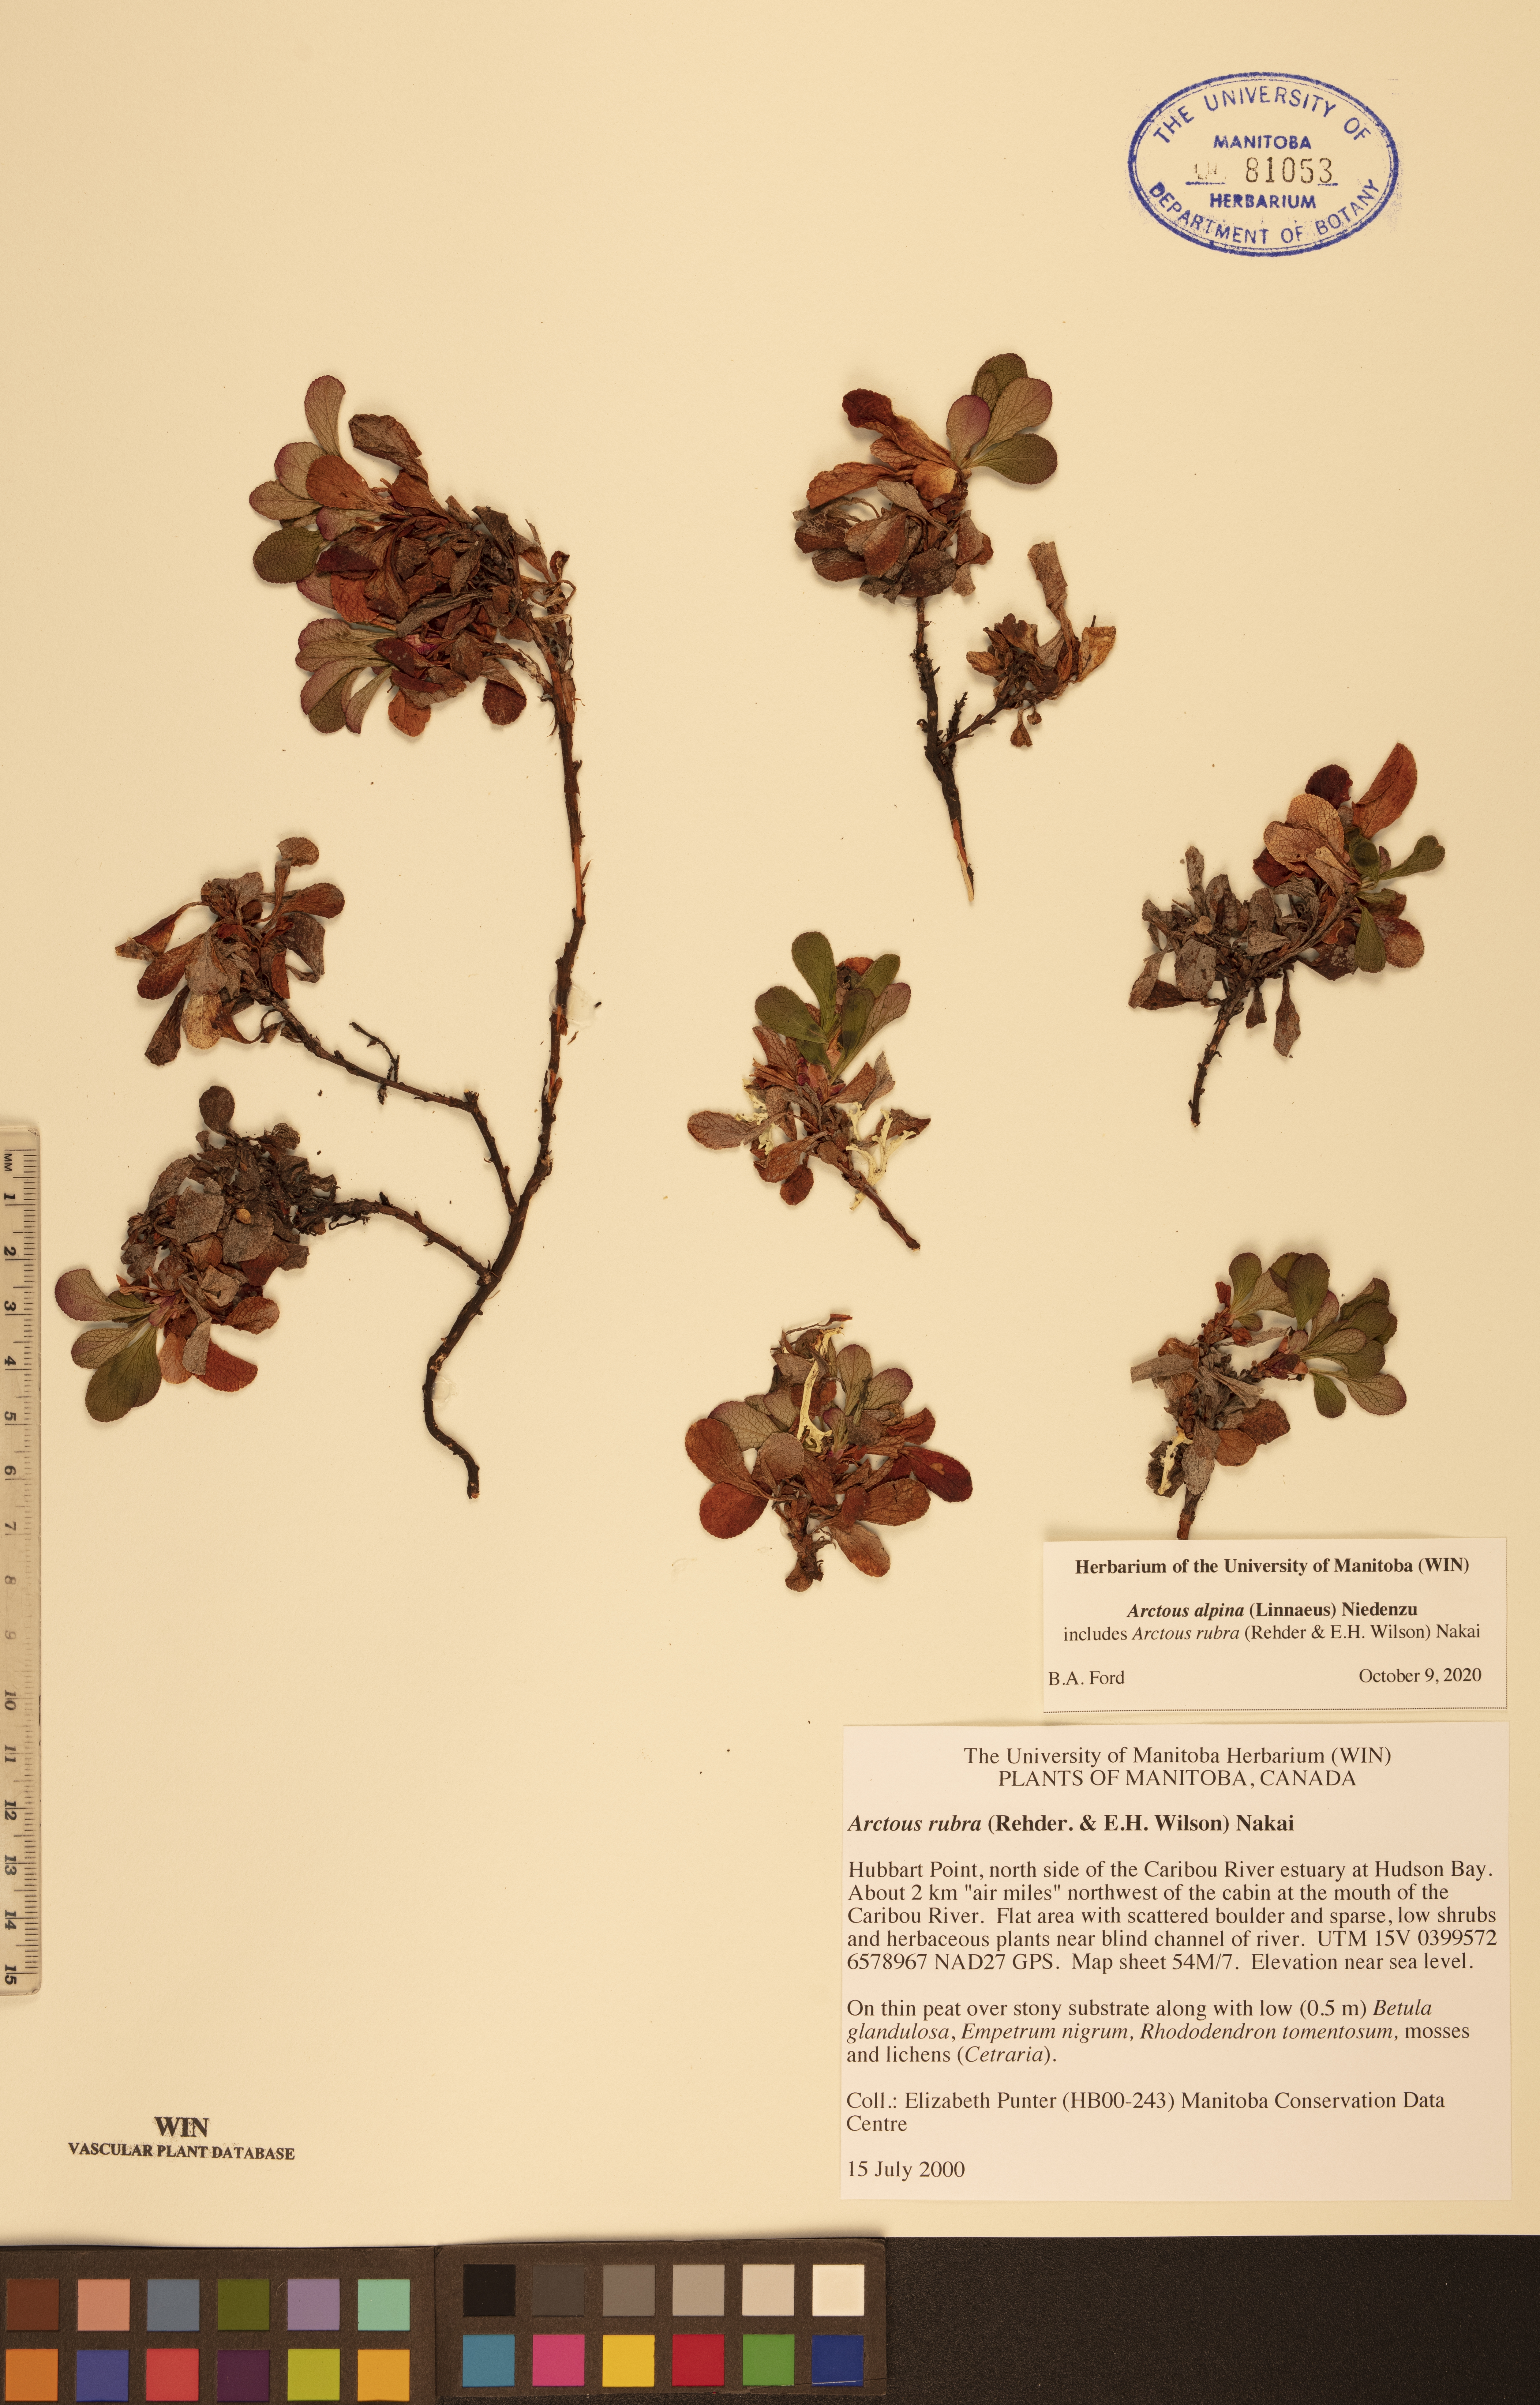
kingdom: Plantae
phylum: Tracheophyta
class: Magnoliopsida
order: Ericales
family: Ericaceae
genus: Arctostaphylos
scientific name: Arctostaphylos alpinus
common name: Alpine bearberry
